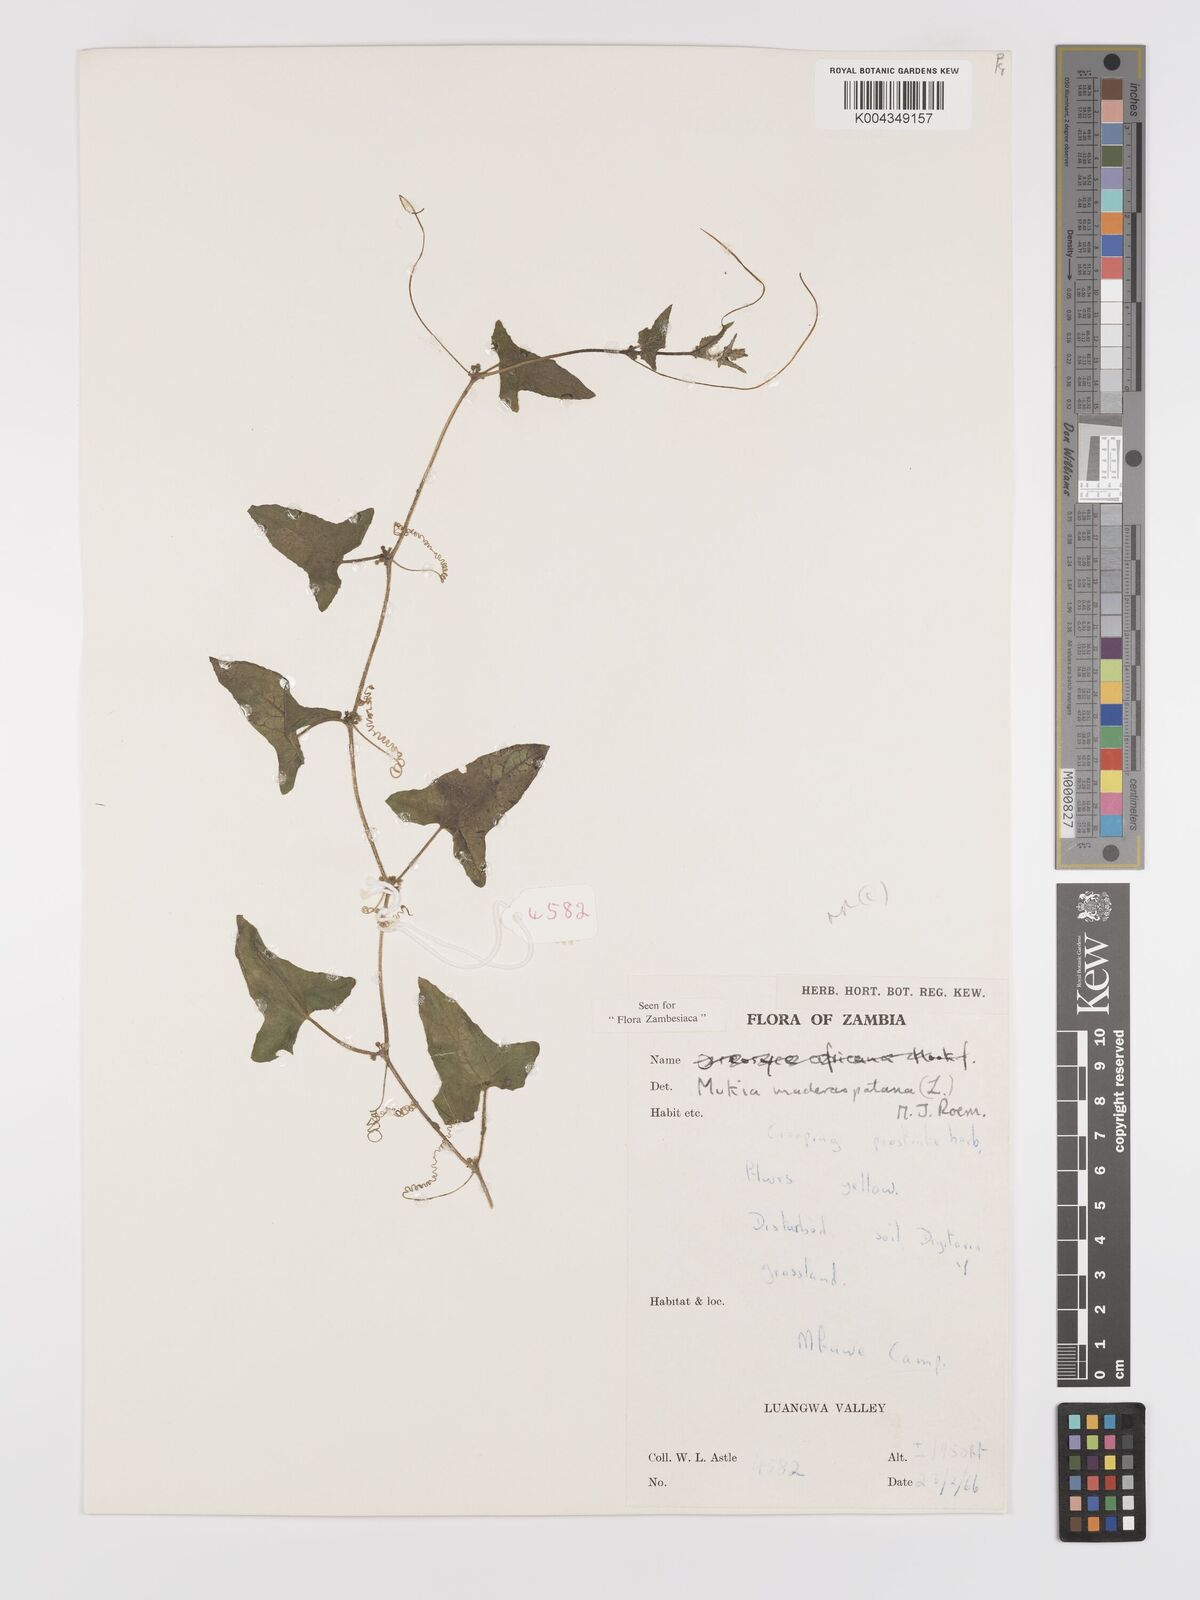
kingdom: Plantae
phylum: Tracheophyta
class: Magnoliopsida
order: Cucurbitales
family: Cucurbitaceae
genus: Cucumis
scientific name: Cucumis maderaspatanus
